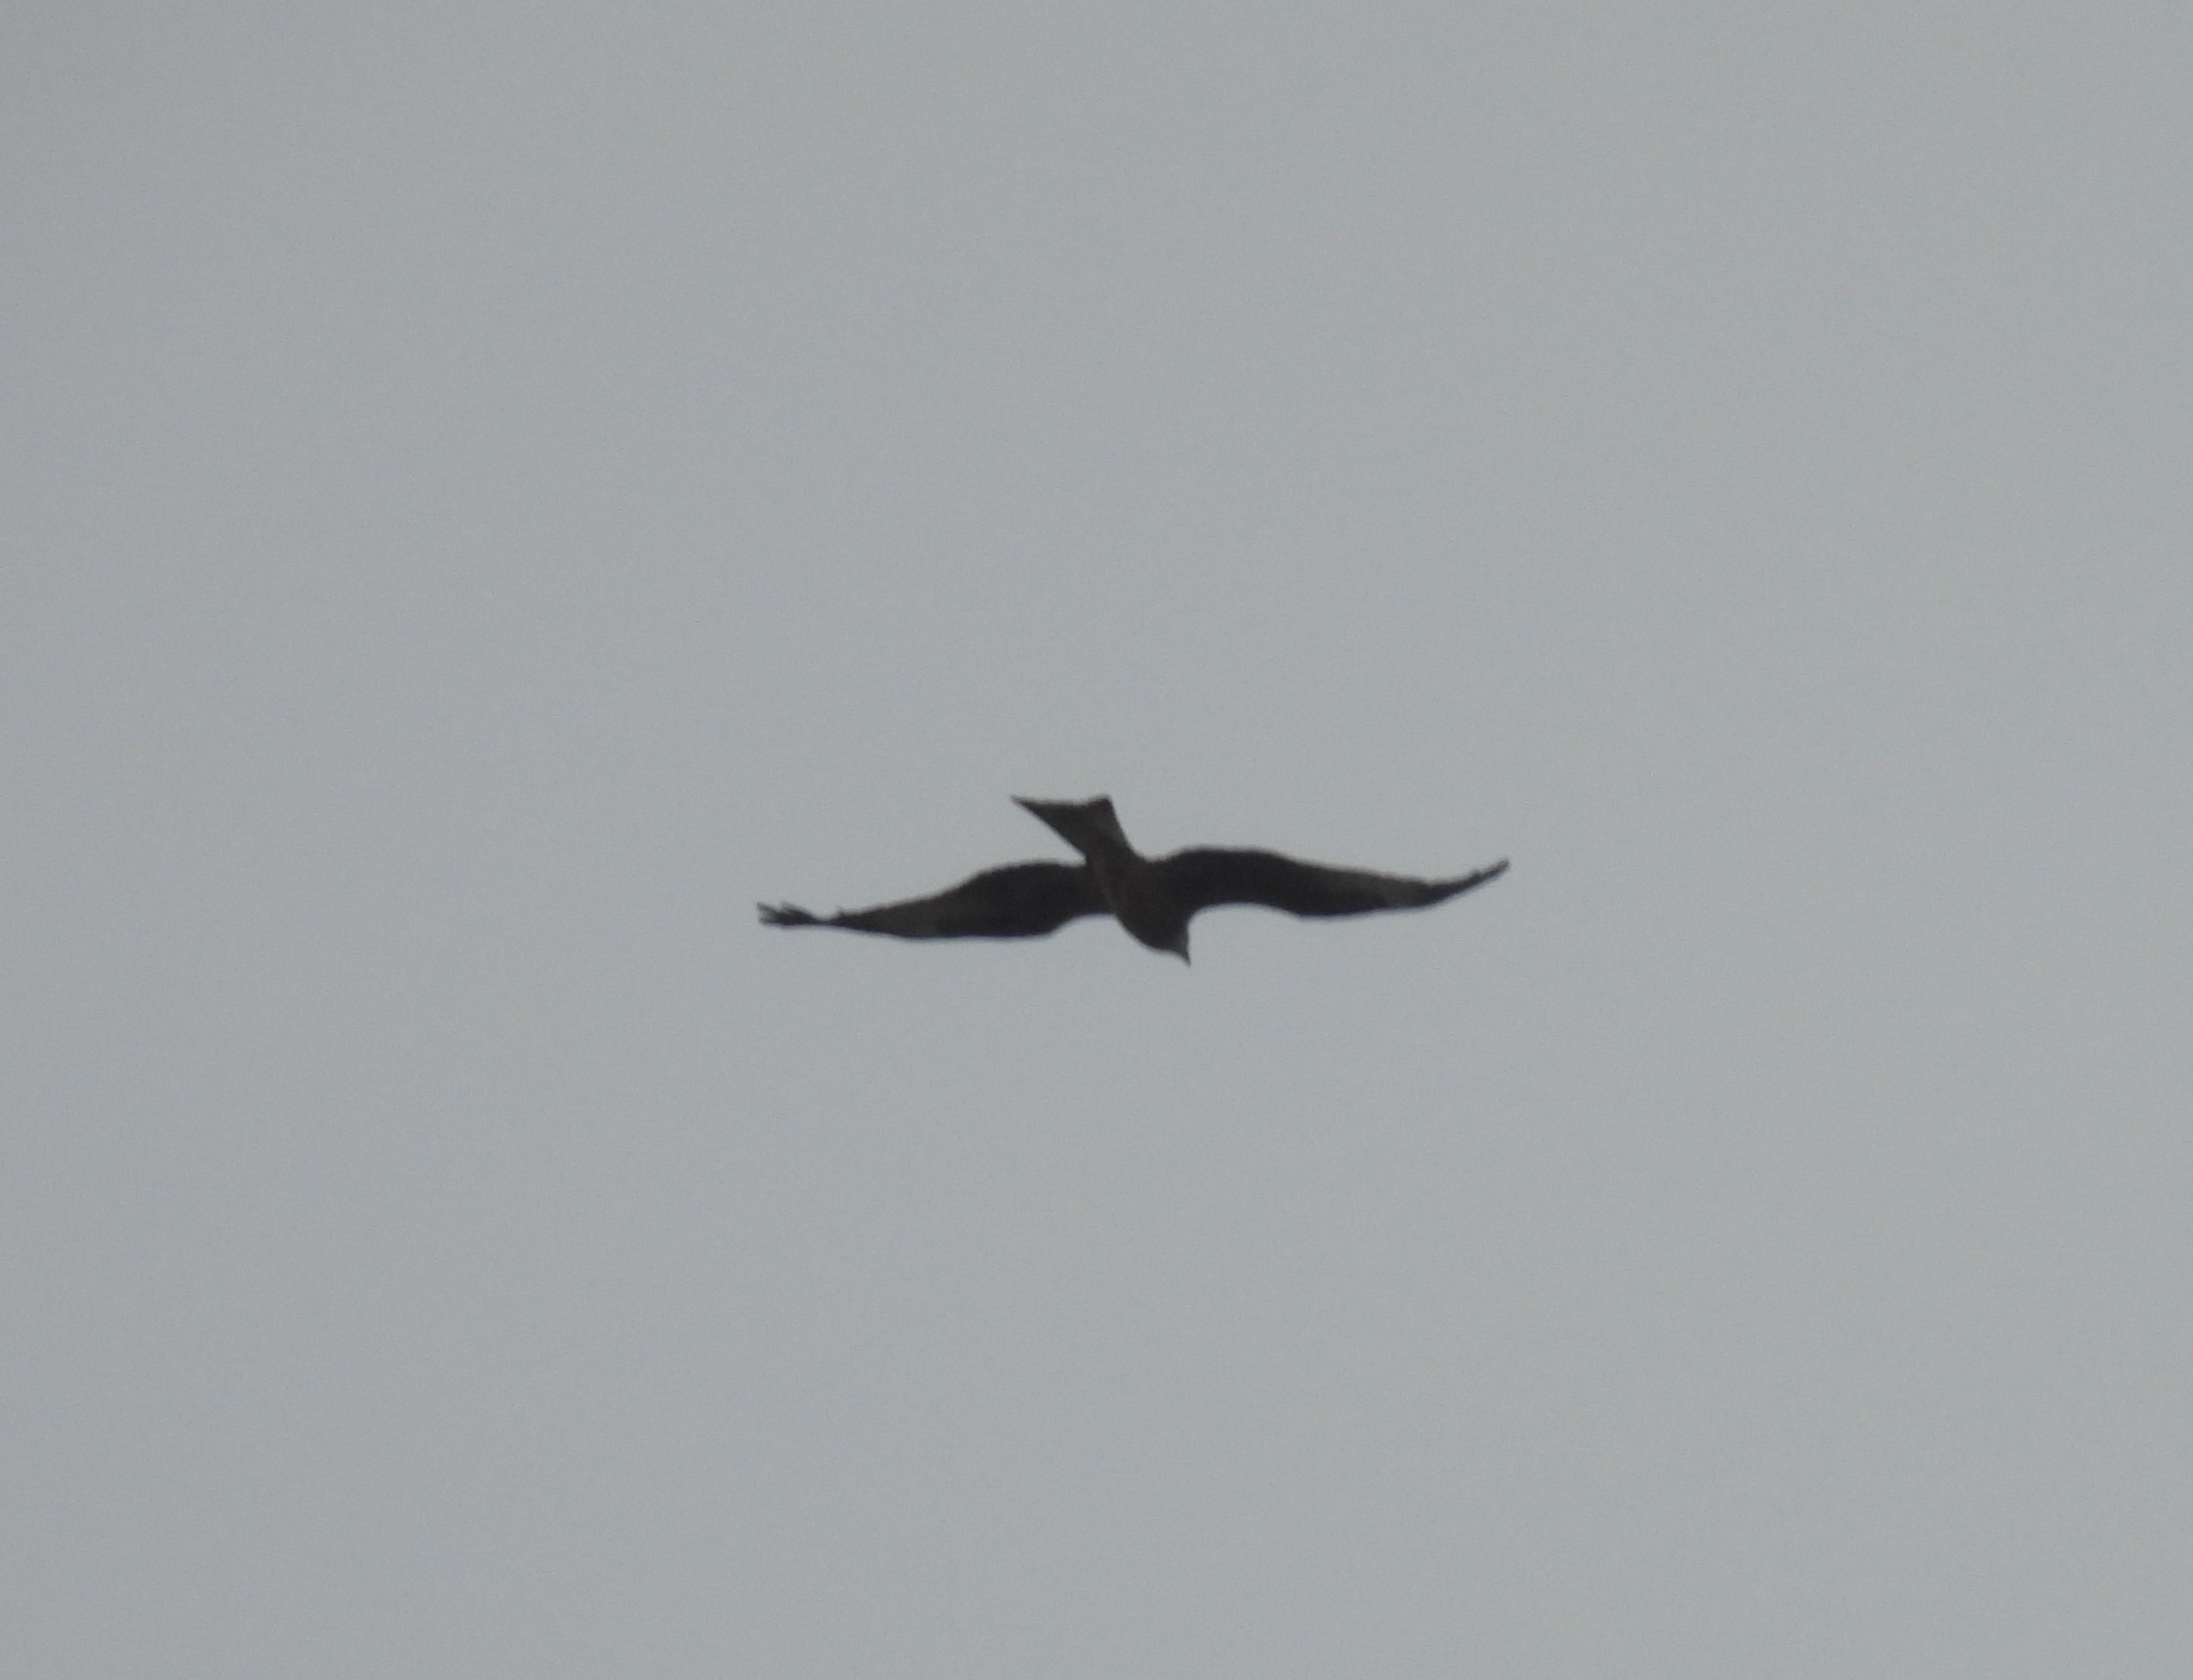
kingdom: Animalia
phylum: Chordata
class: Aves
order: Accipitriformes
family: Accipitridae
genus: Milvus
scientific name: Milvus milvus
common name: Rød glente
